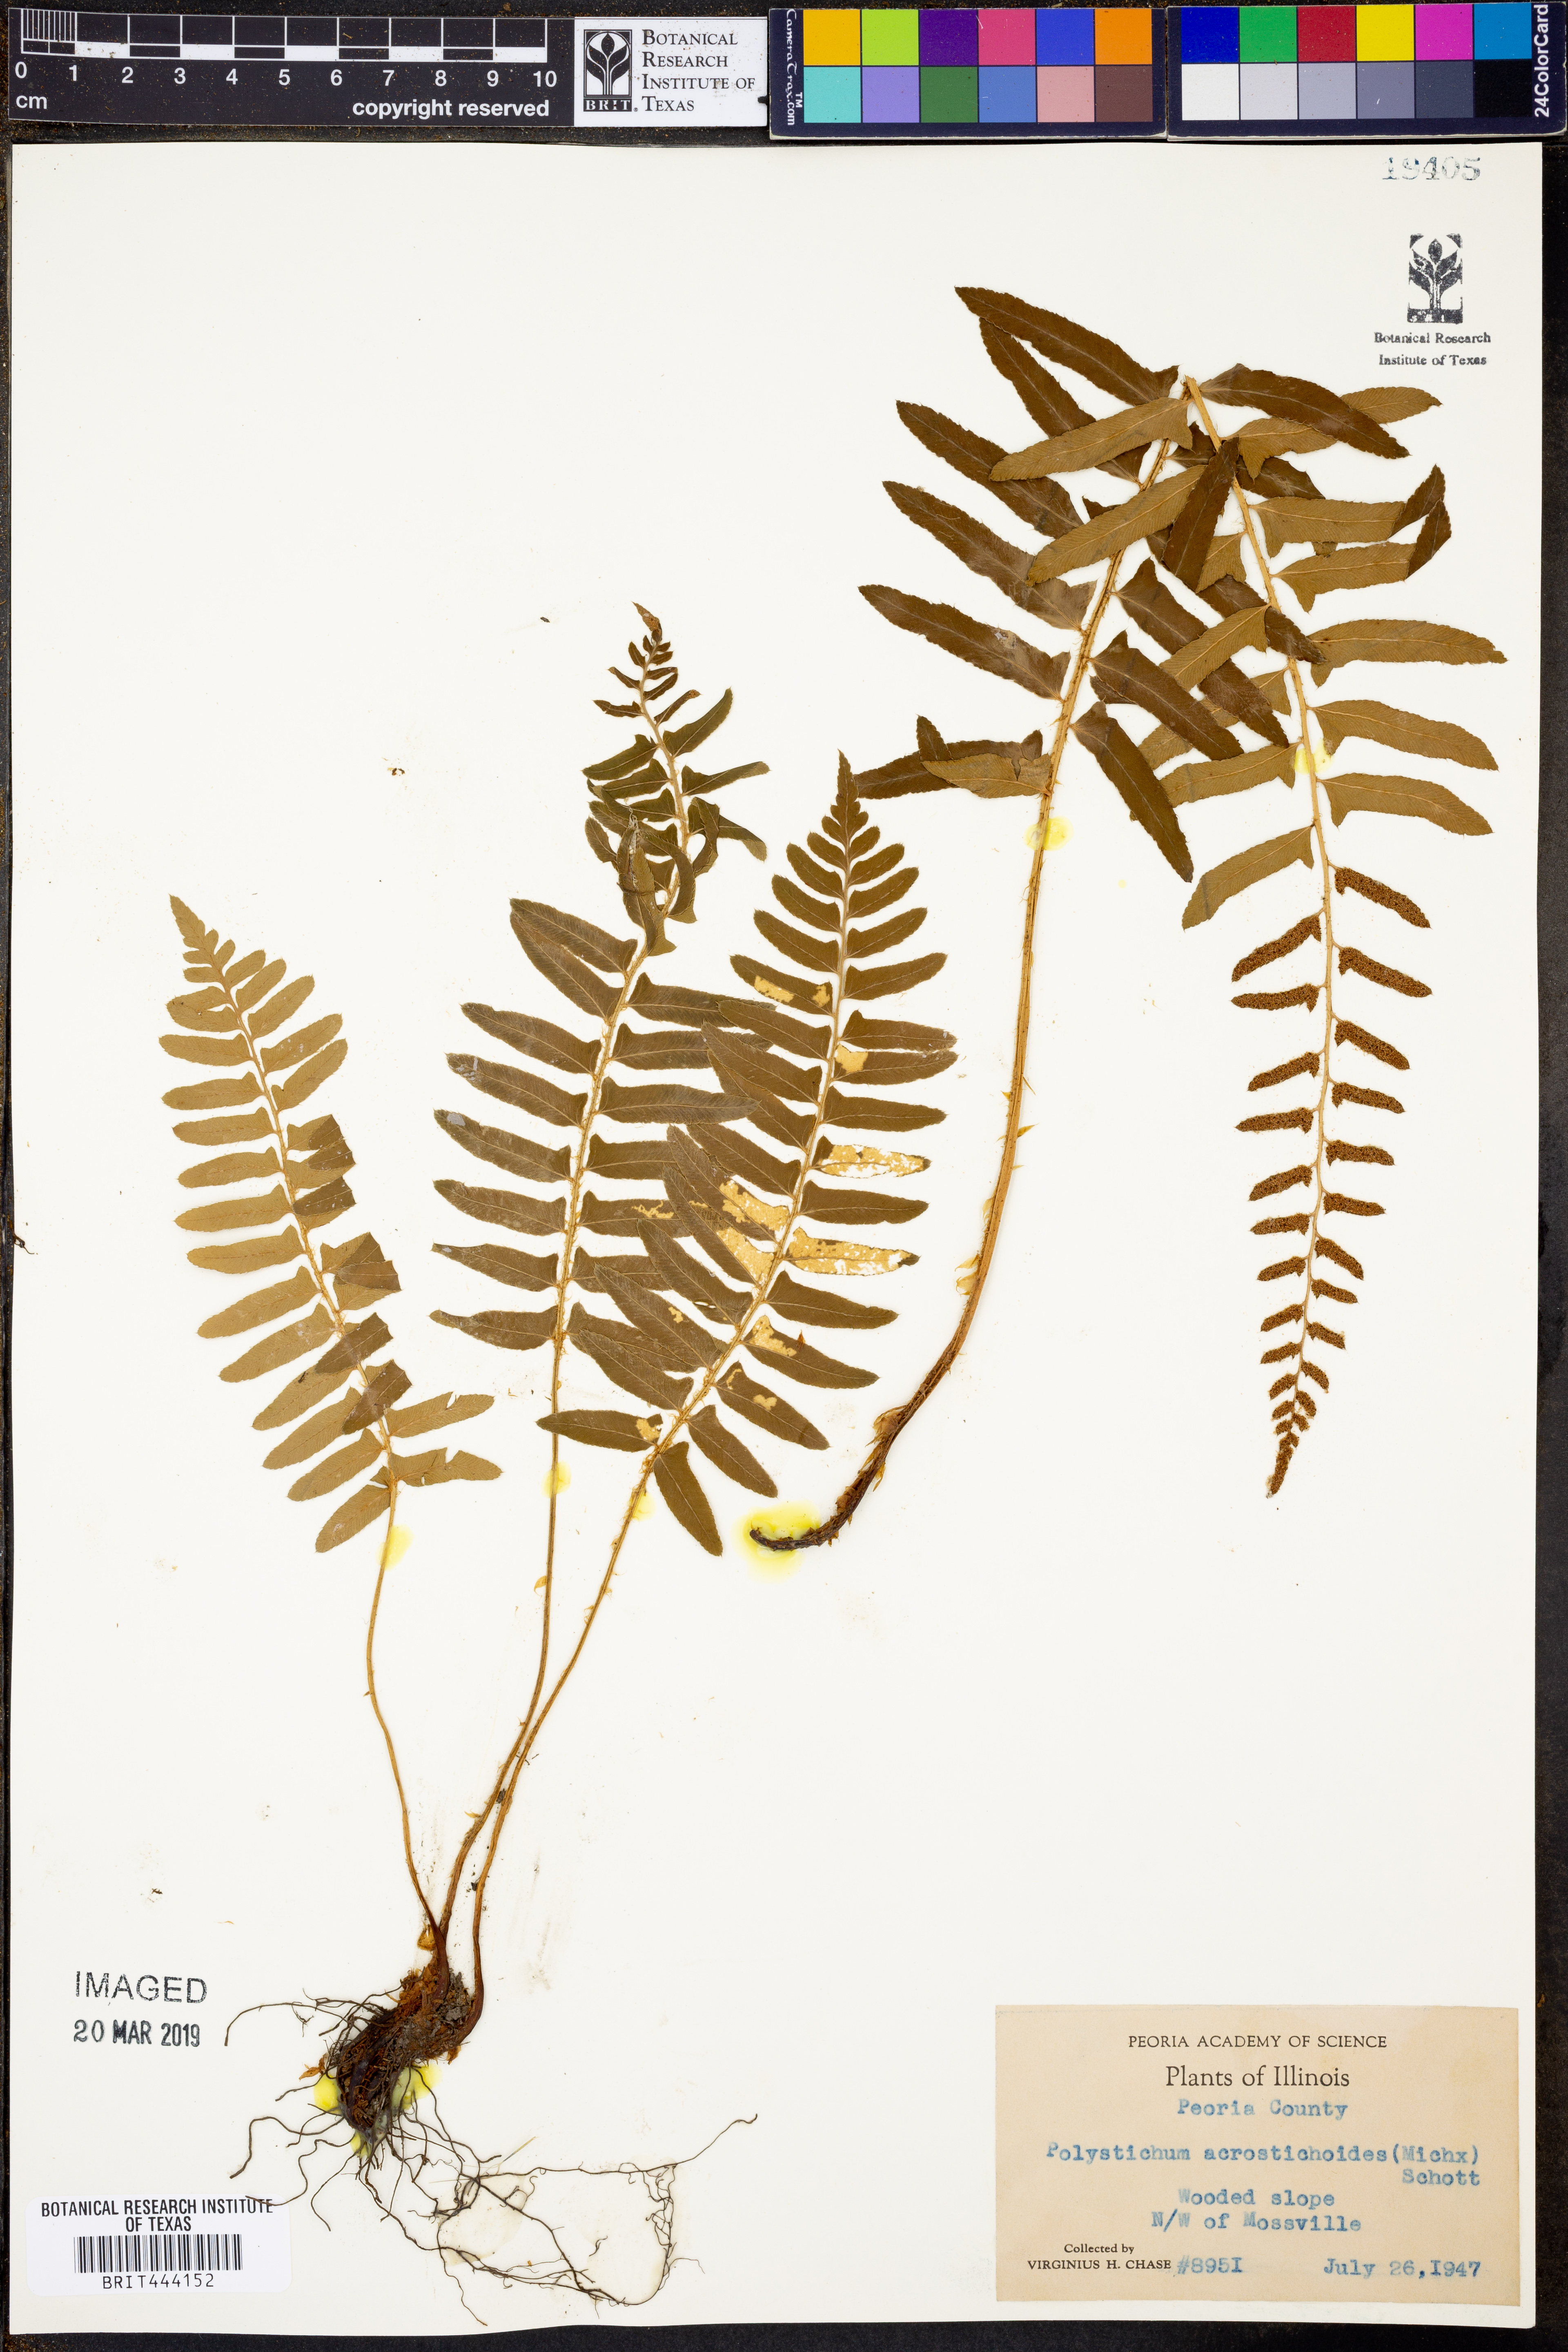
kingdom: Plantae
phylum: Tracheophyta
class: Polypodiopsida
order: Polypodiales
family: Dryopteridaceae
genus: Polystichum
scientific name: Polystichum acrostichoides
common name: Christmas fern
